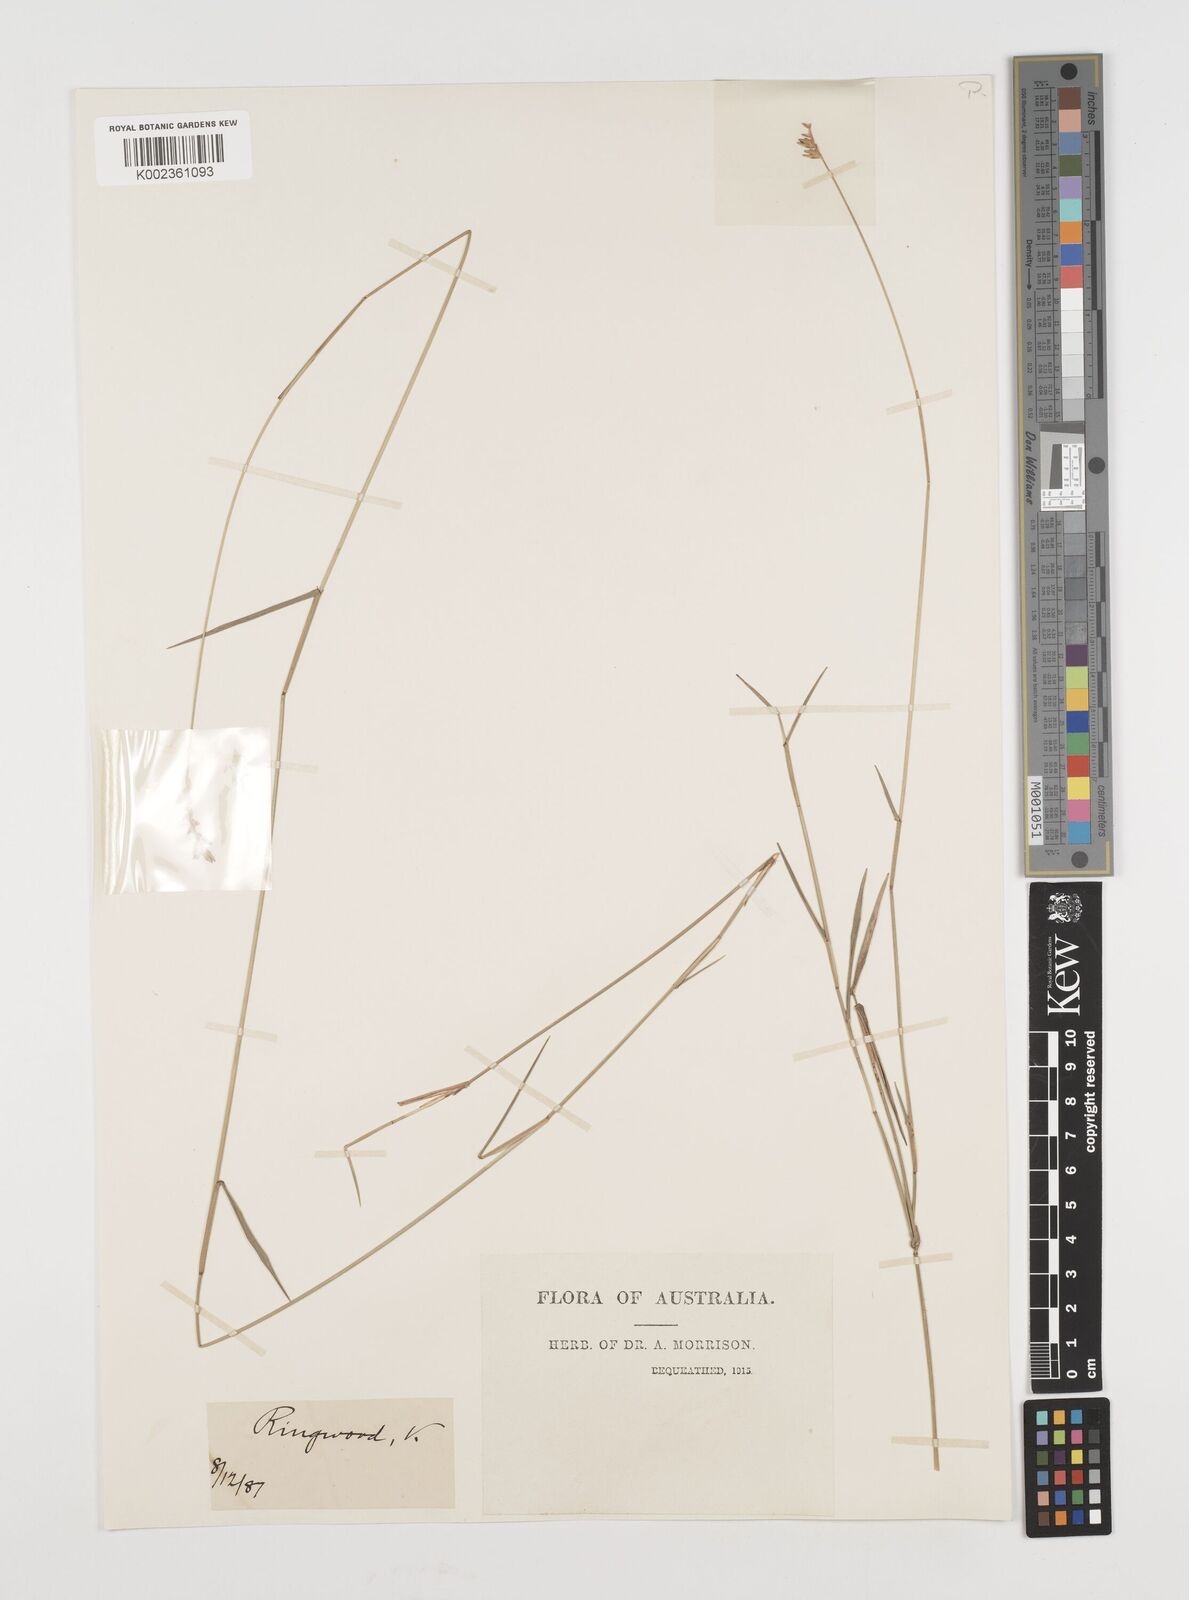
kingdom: Plantae
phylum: Tracheophyta
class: Liliopsida
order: Poales
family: Poaceae
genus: Tetrarrhena
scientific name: Tetrarrhena juncea
